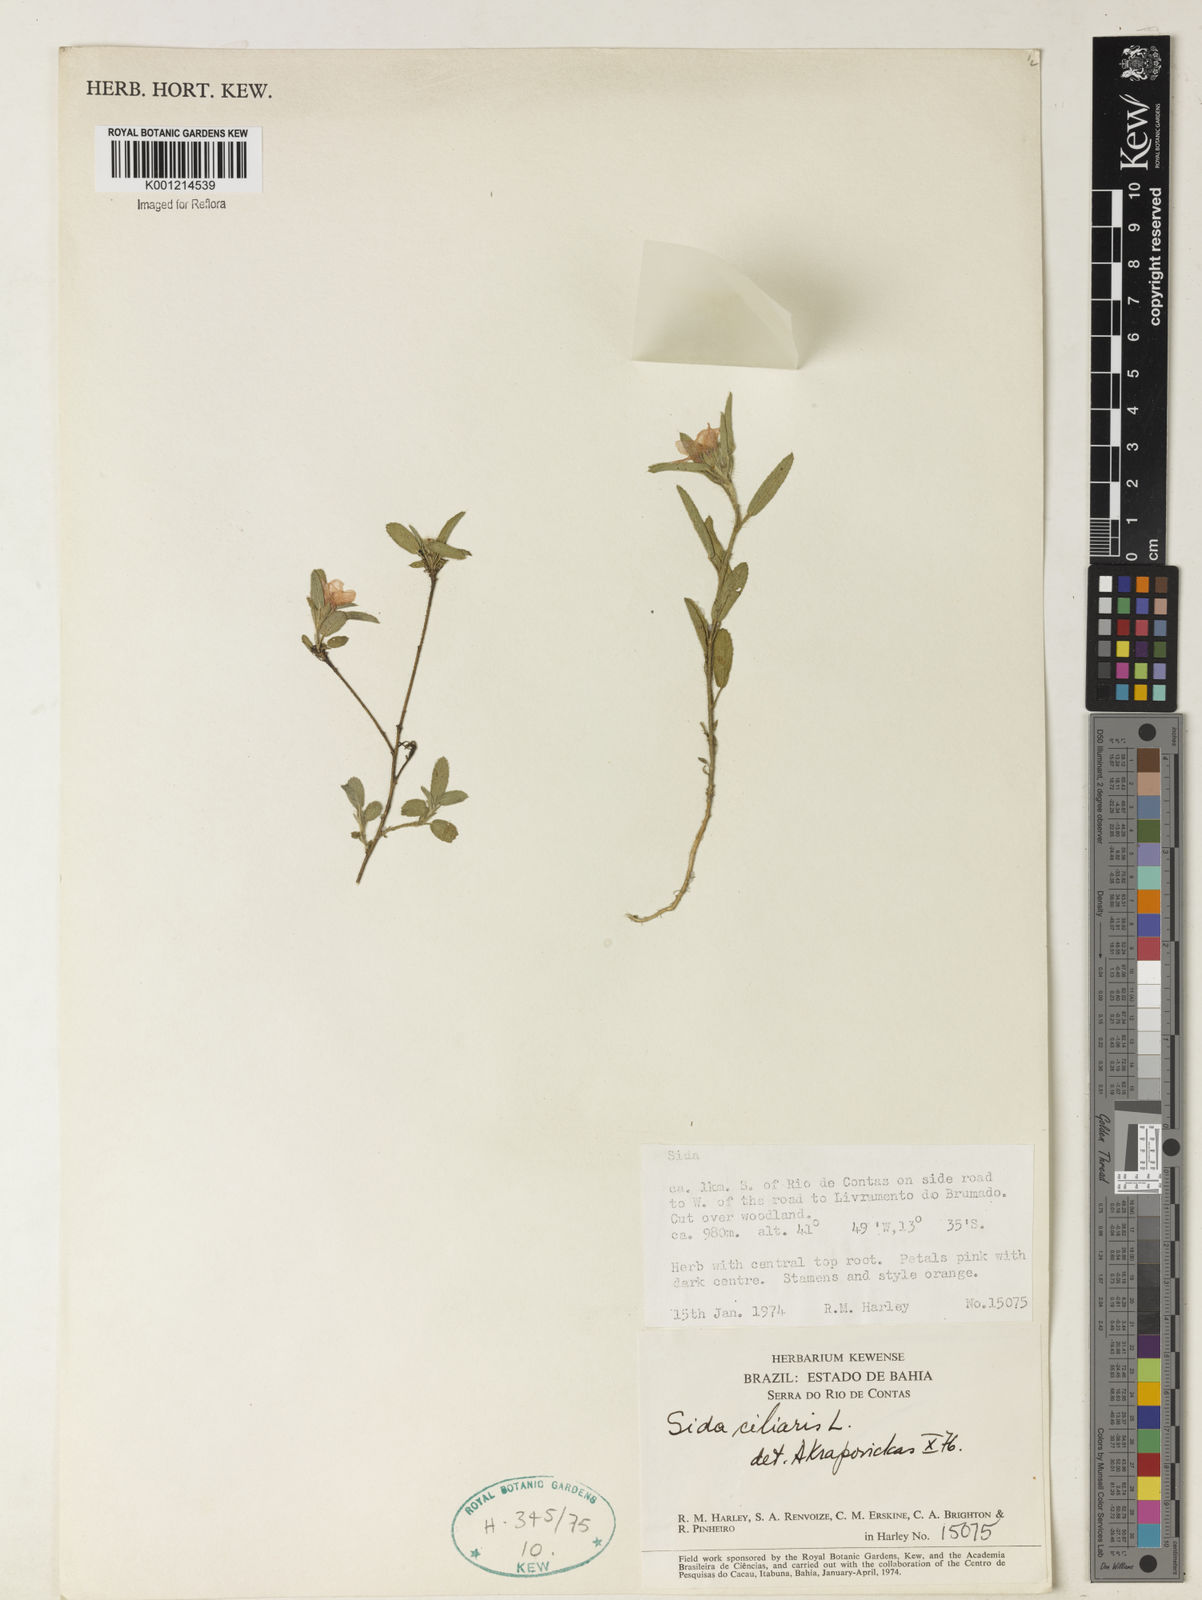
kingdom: Plantae
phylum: Tracheophyta
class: Magnoliopsida
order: Malvales
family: Malvaceae
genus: Sida
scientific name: Sida ciliaris
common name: Bracted fanpetals
